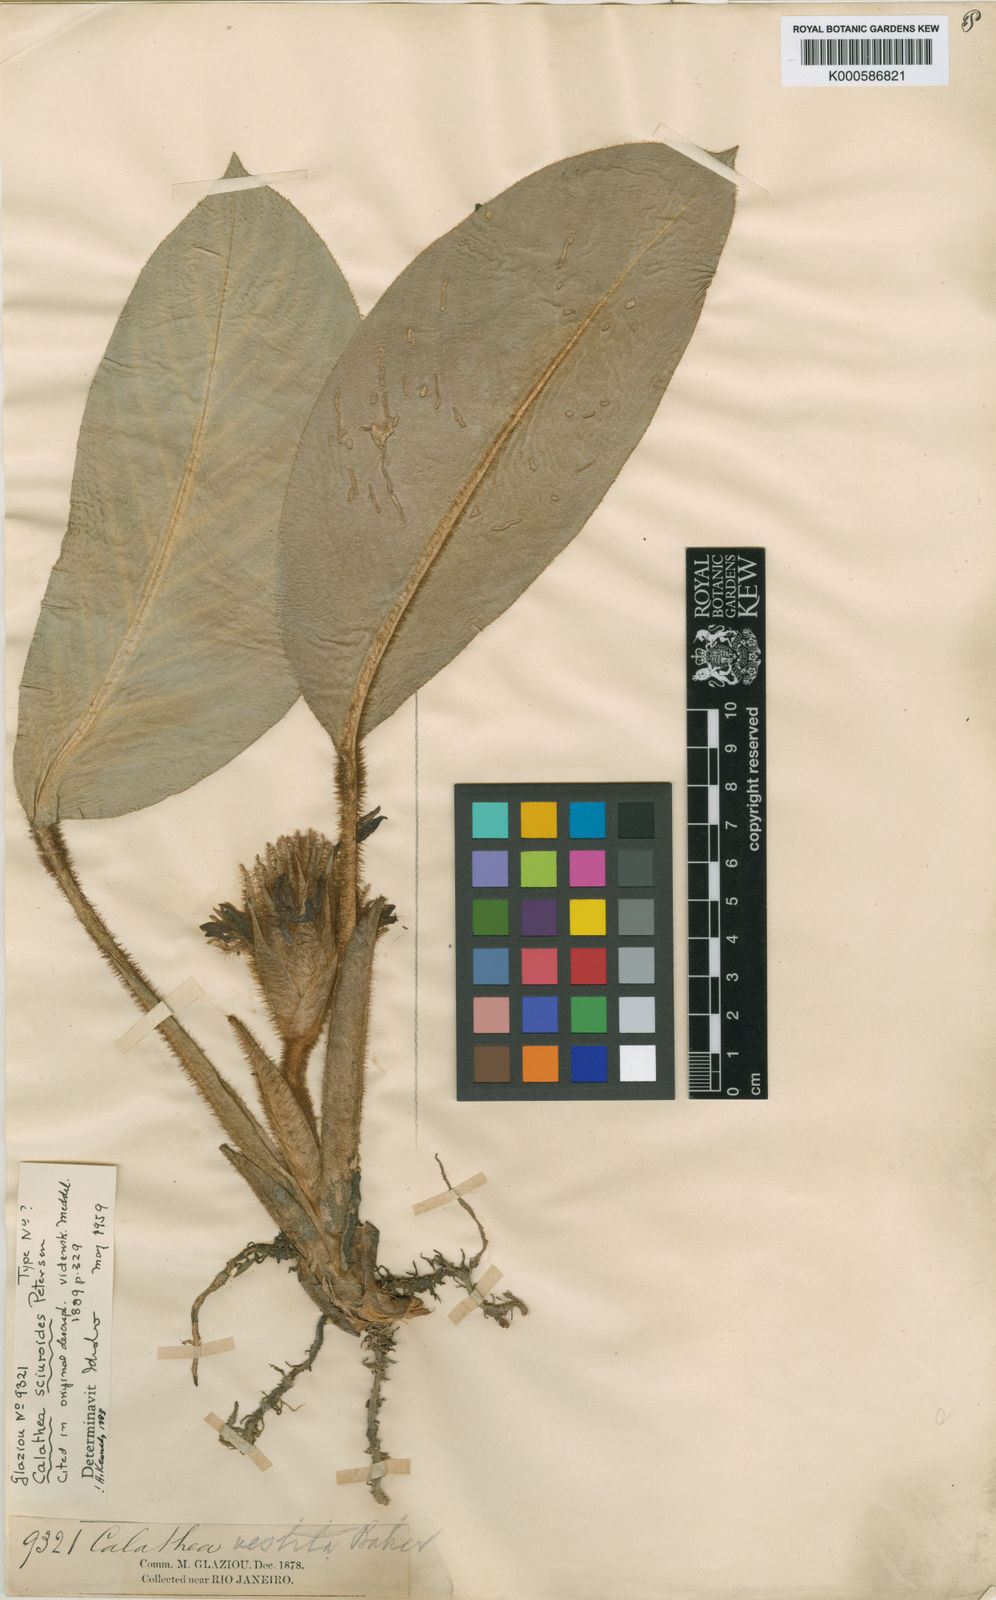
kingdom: Plantae
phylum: Tracheophyta
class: Liliopsida
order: Zingiberales
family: Marantaceae
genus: Goeppertia
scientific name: Goeppertia sciuroides
